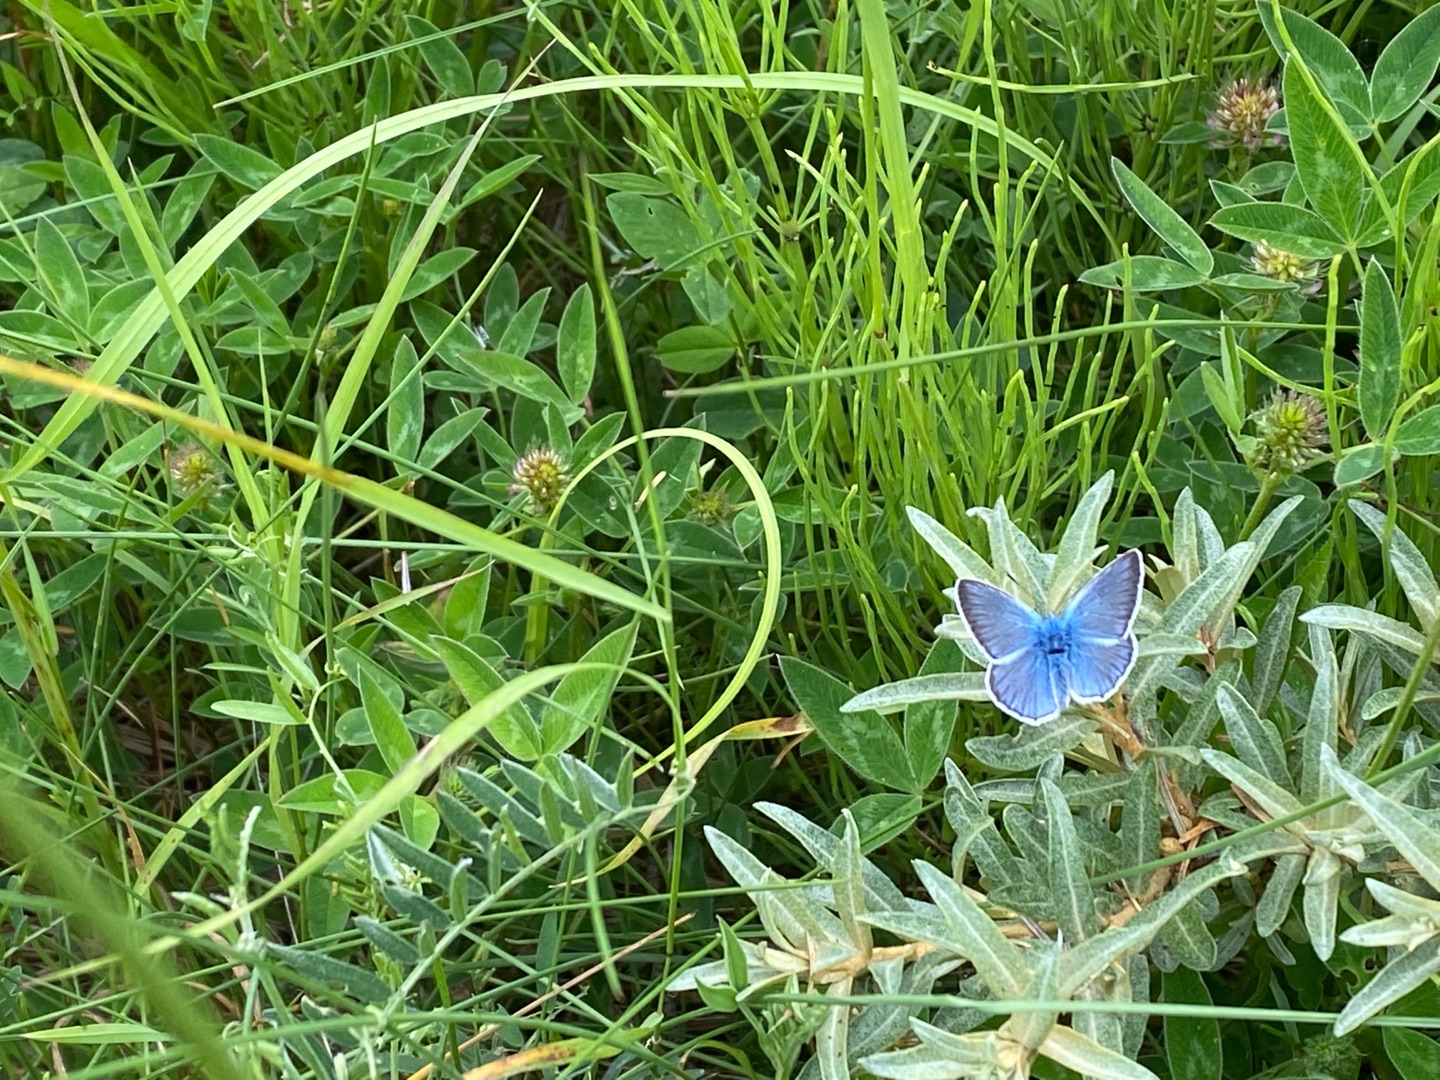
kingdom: Animalia
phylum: Arthropoda
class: Insecta
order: Lepidoptera
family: Lycaenidae
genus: Polyommatus
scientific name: Polyommatus icarus
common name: Almindelig blåfugl
